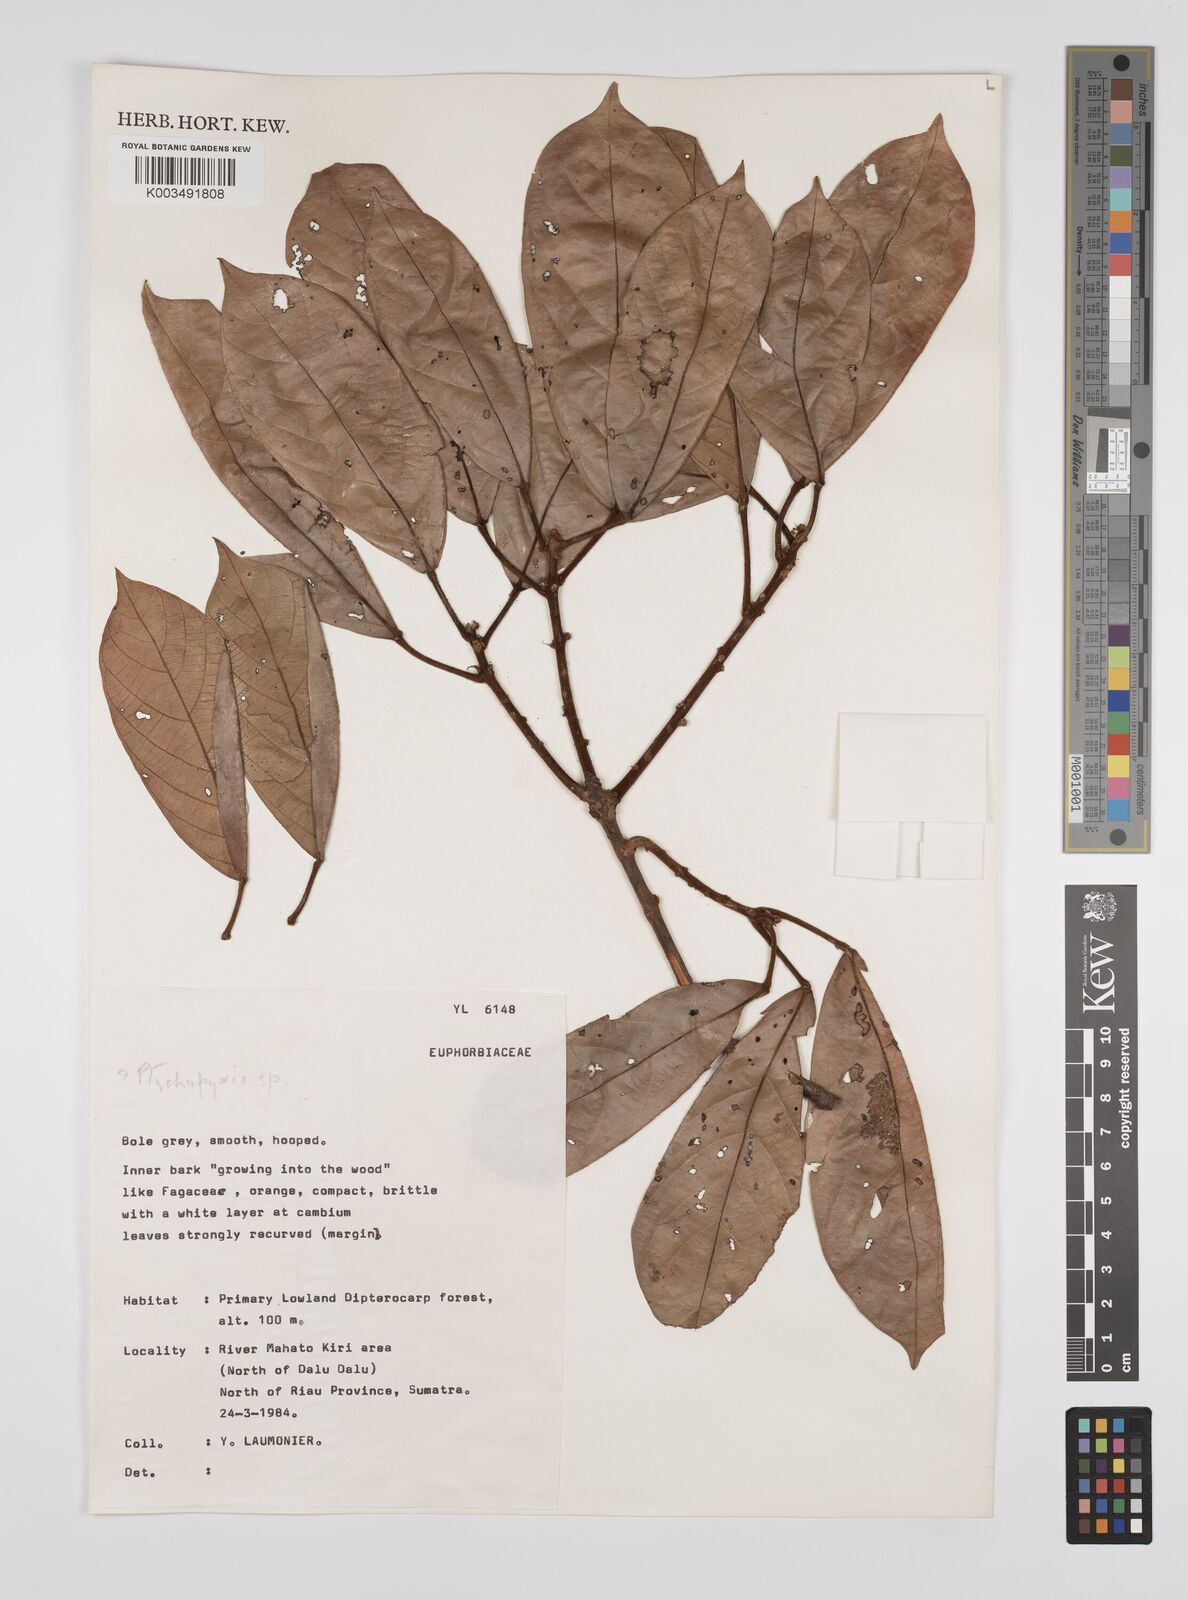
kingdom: Plantae
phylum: Tracheophyta
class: Magnoliopsida
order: Malpighiales
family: Euphorbiaceae
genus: Ptychopyxis
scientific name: Ptychopyxis
